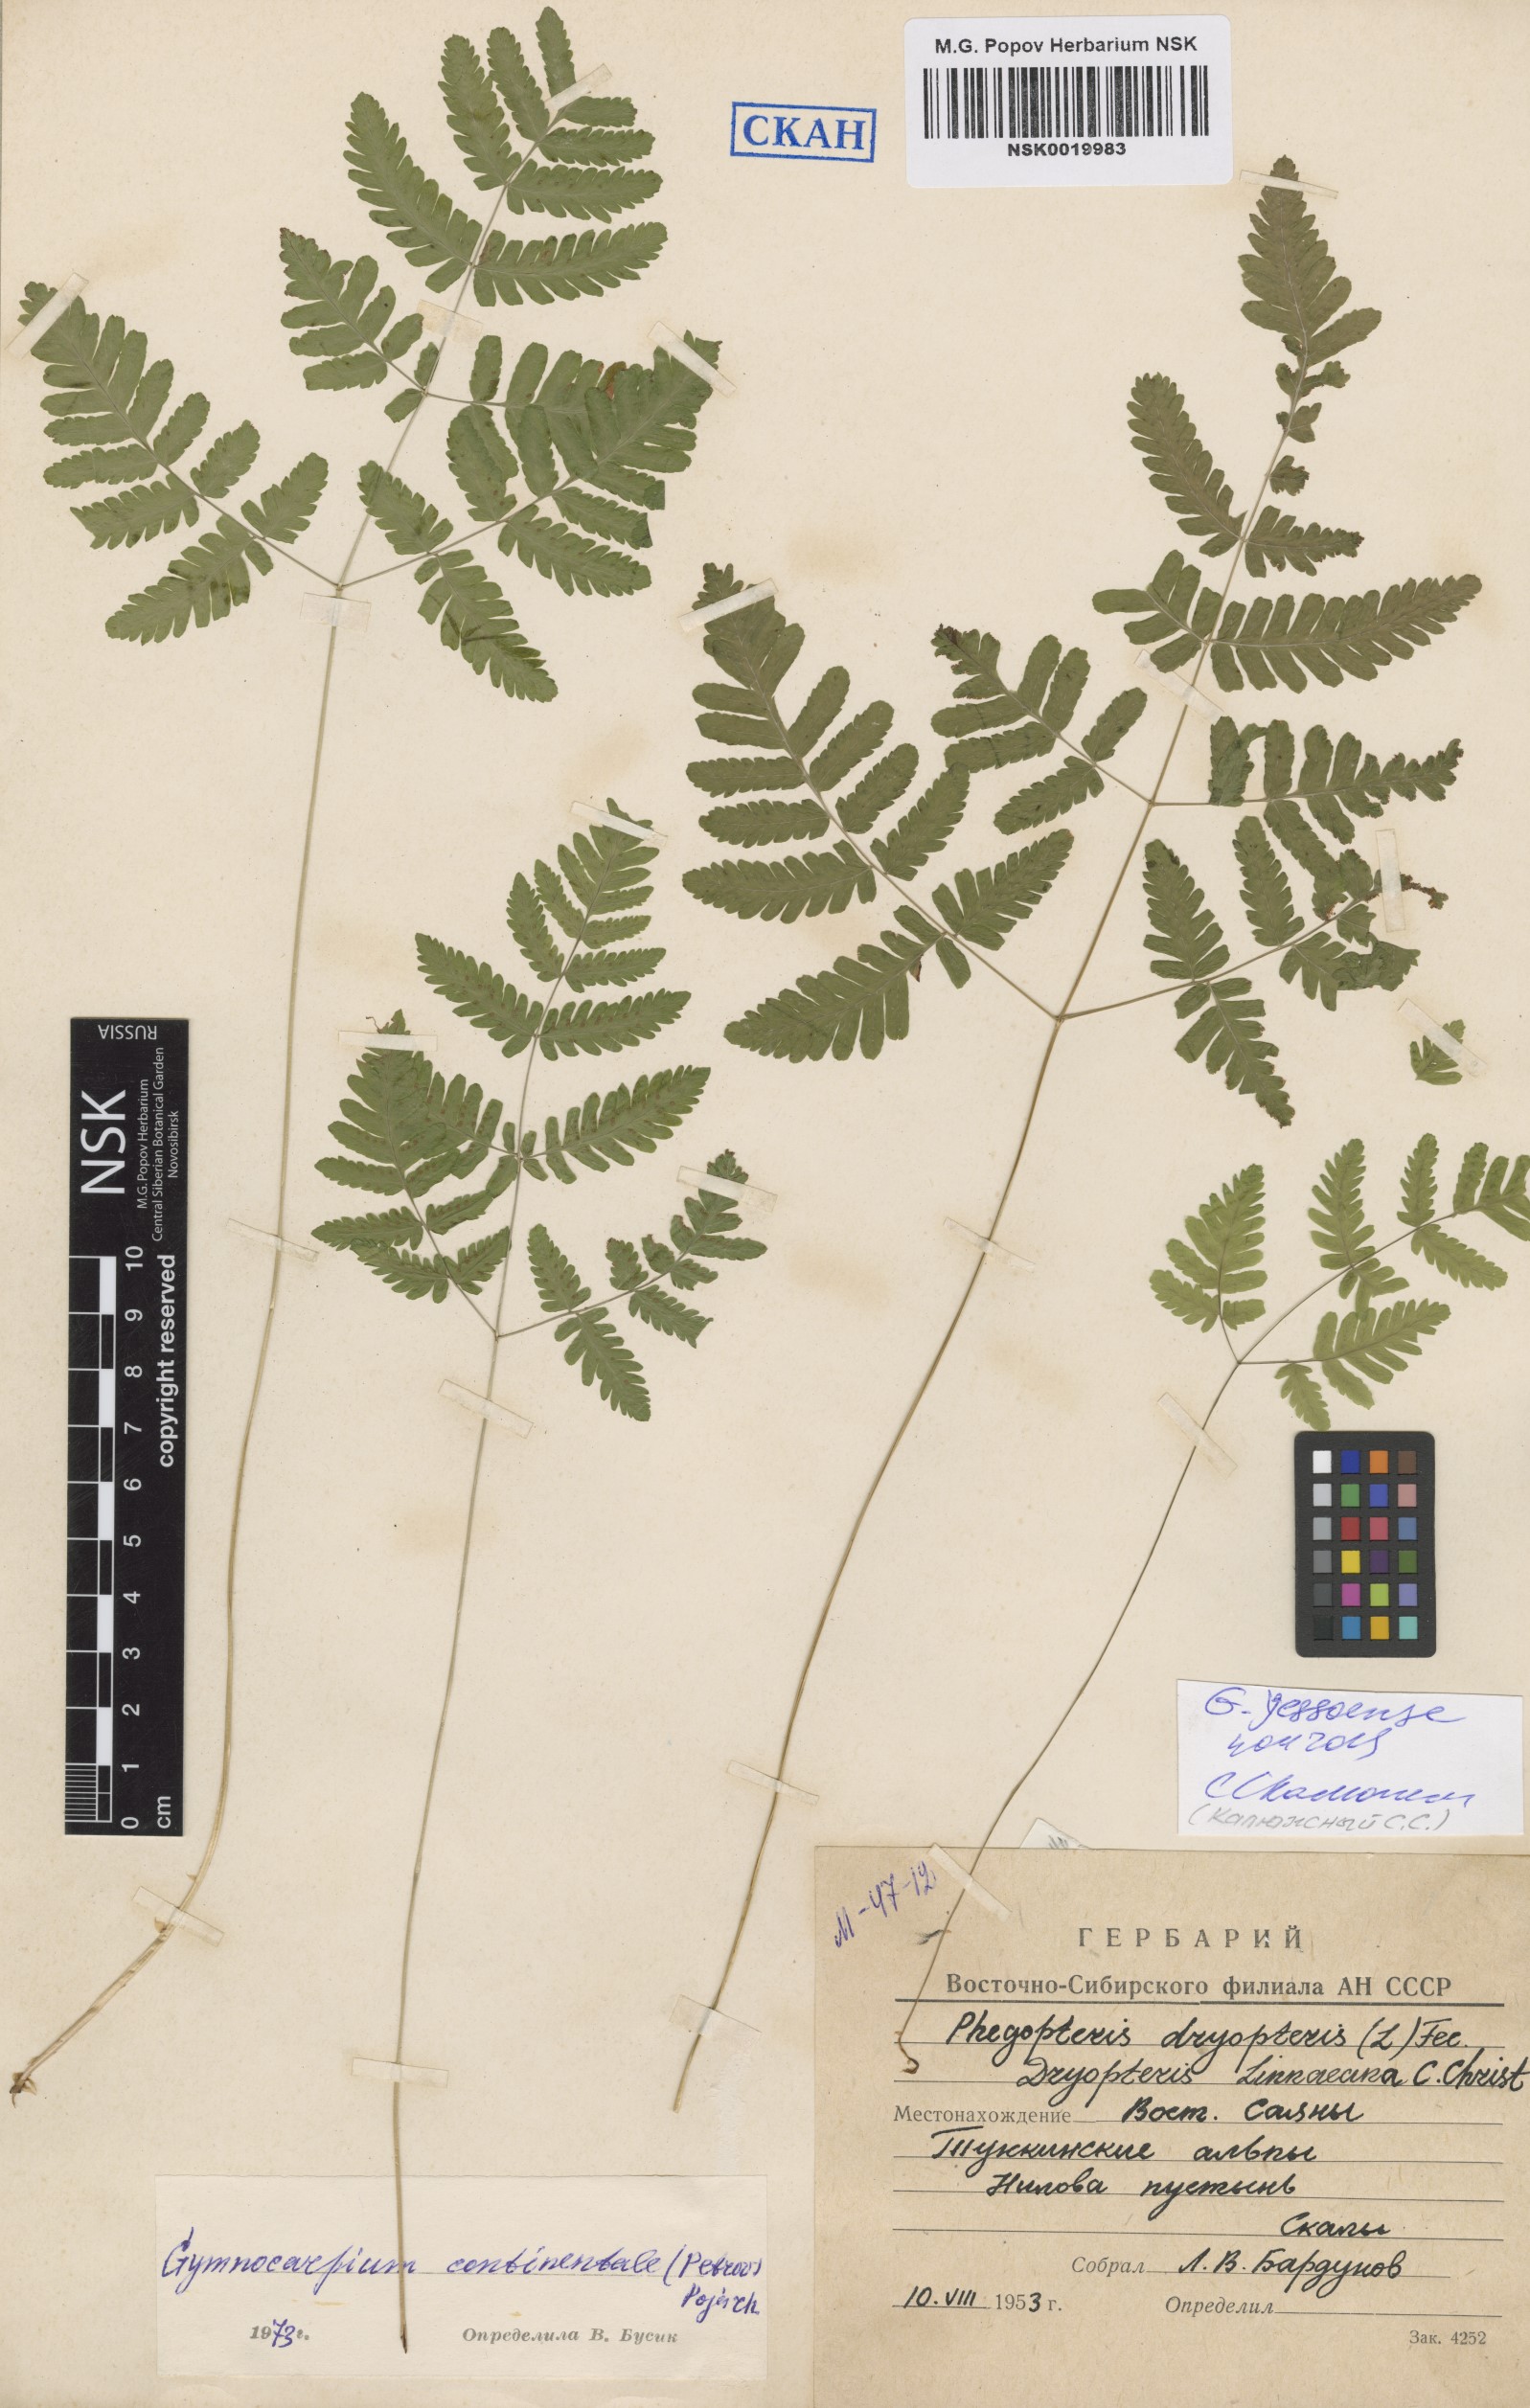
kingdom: Plantae
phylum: Tracheophyta
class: Polypodiopsida
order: Polypodiales
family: Cystopteridaceae
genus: Gymnocarpium
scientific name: Gymnocarpium jessoense
